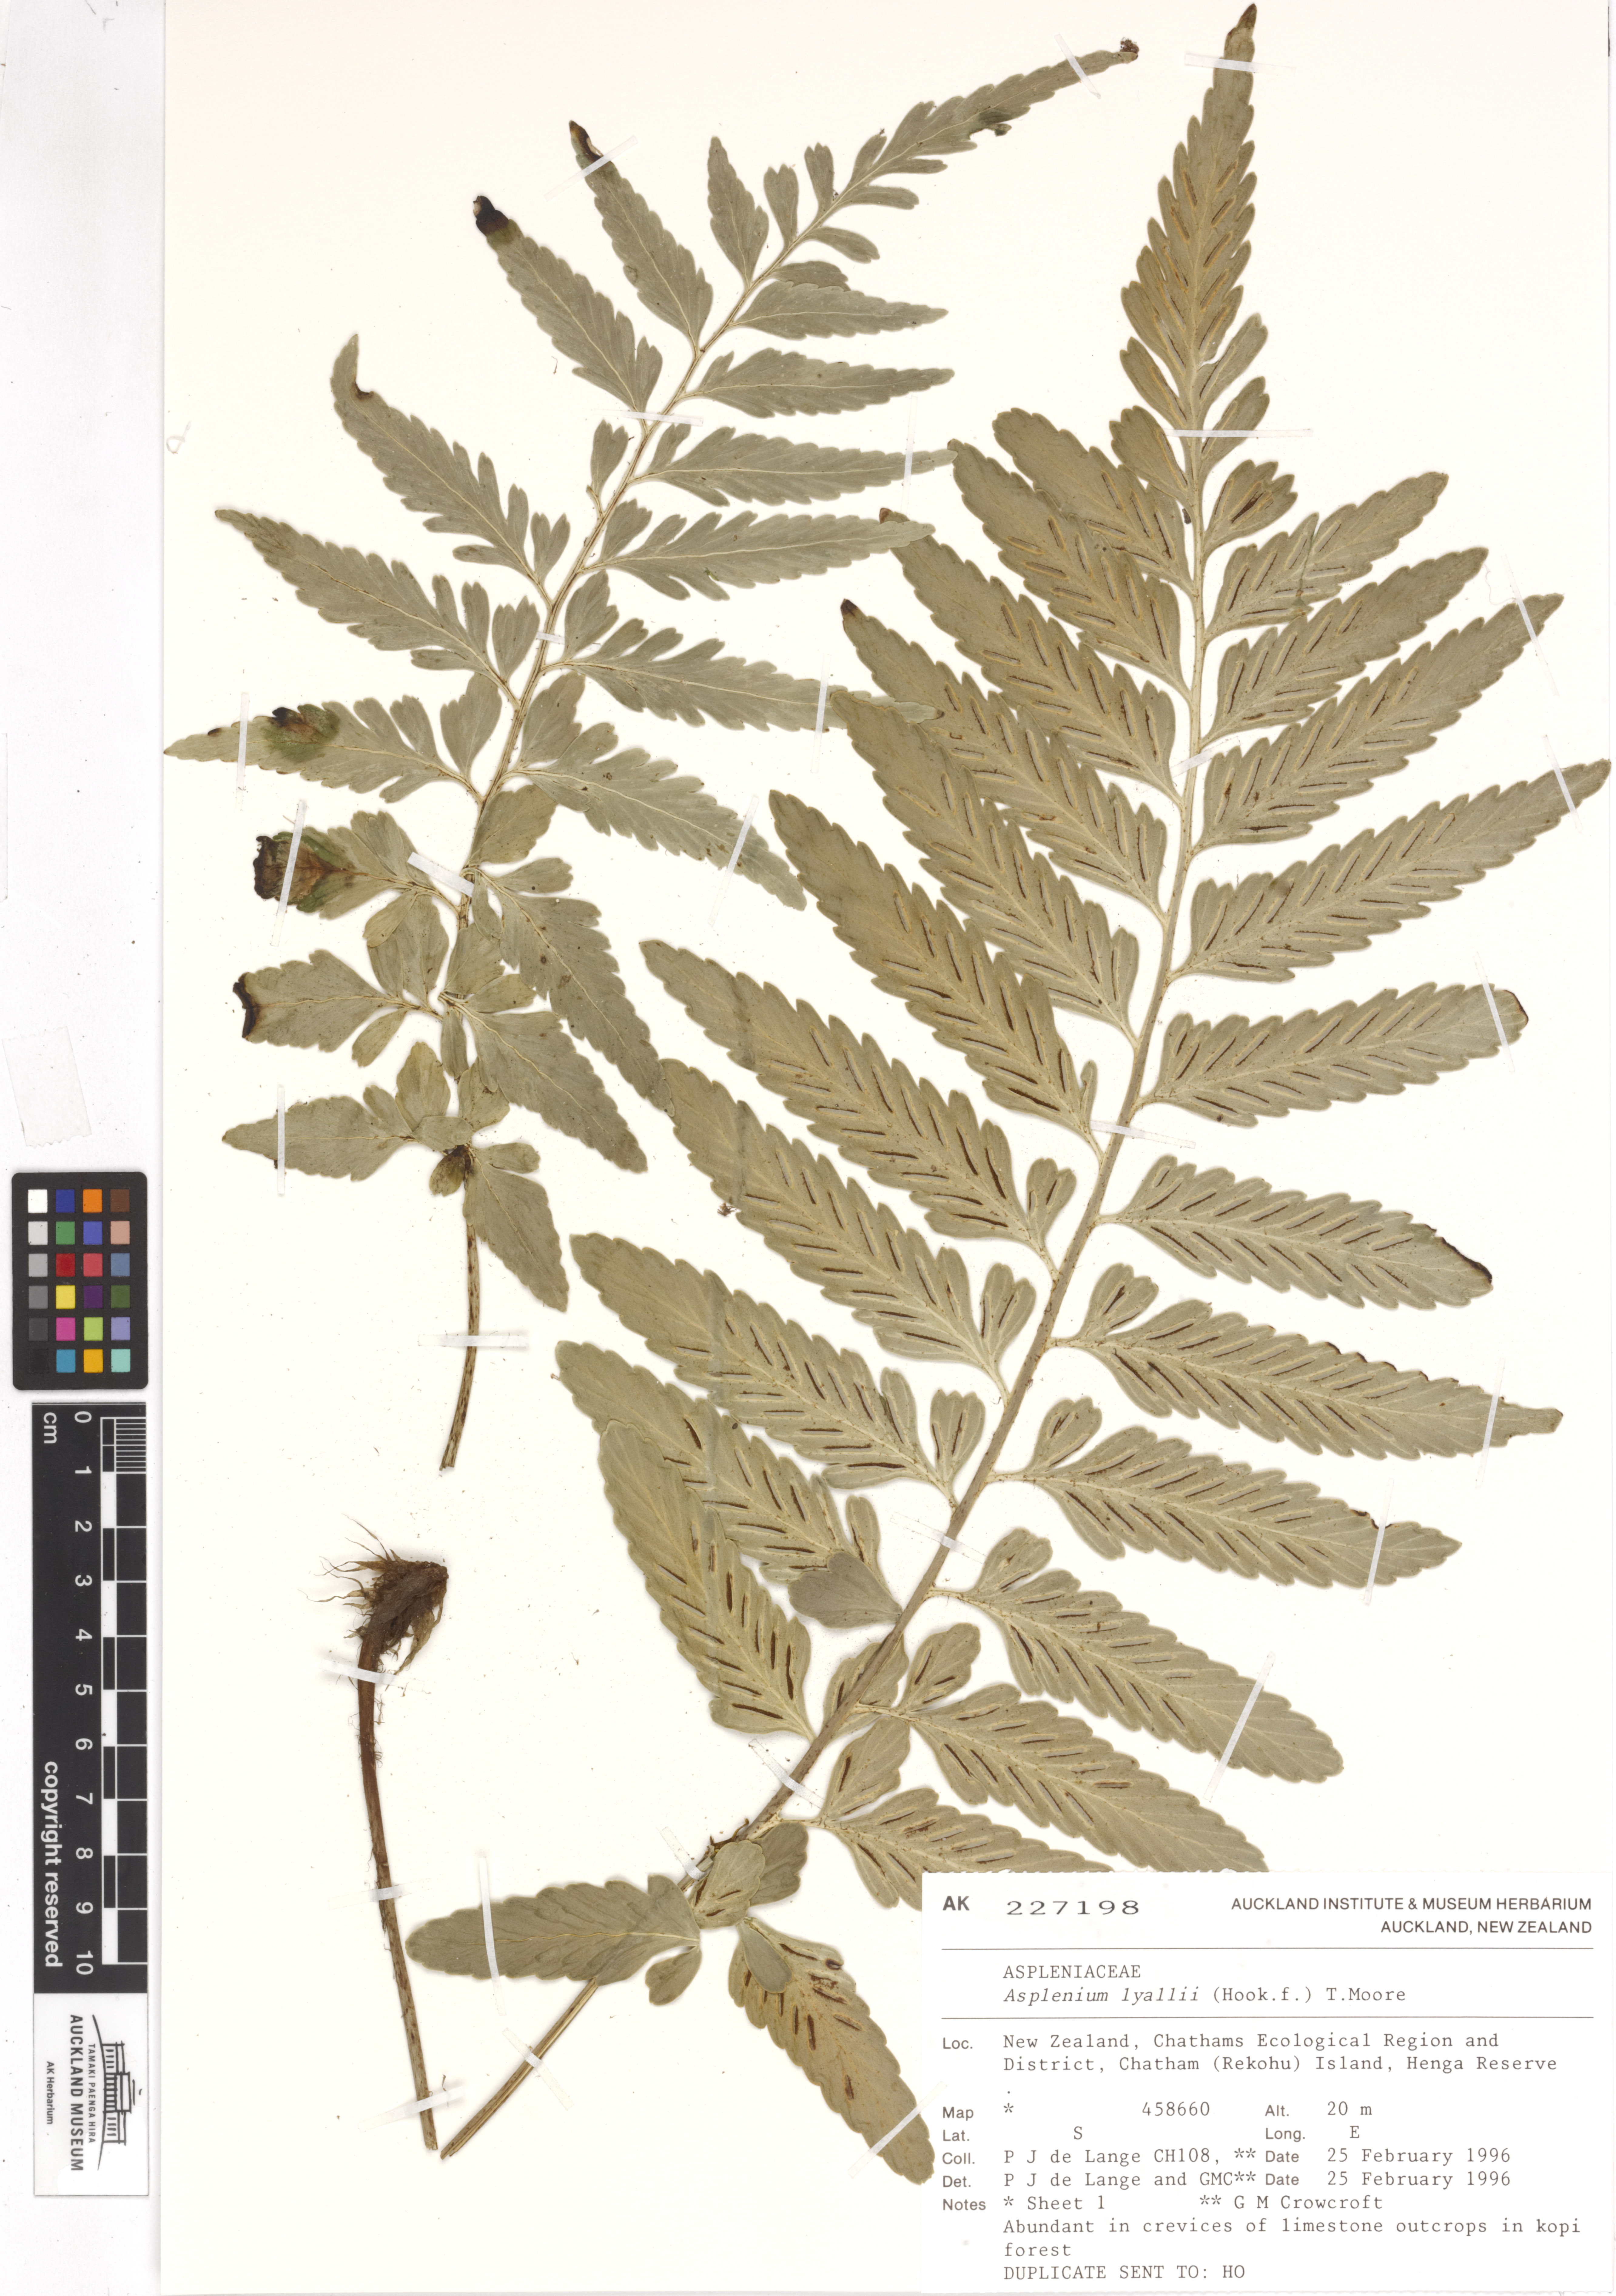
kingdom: Plantae
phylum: Tracheophyta
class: Polypodiopsida
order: Polypodiales
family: Aspleniaceae
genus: Asplenium
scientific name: Asplenium lyallii
